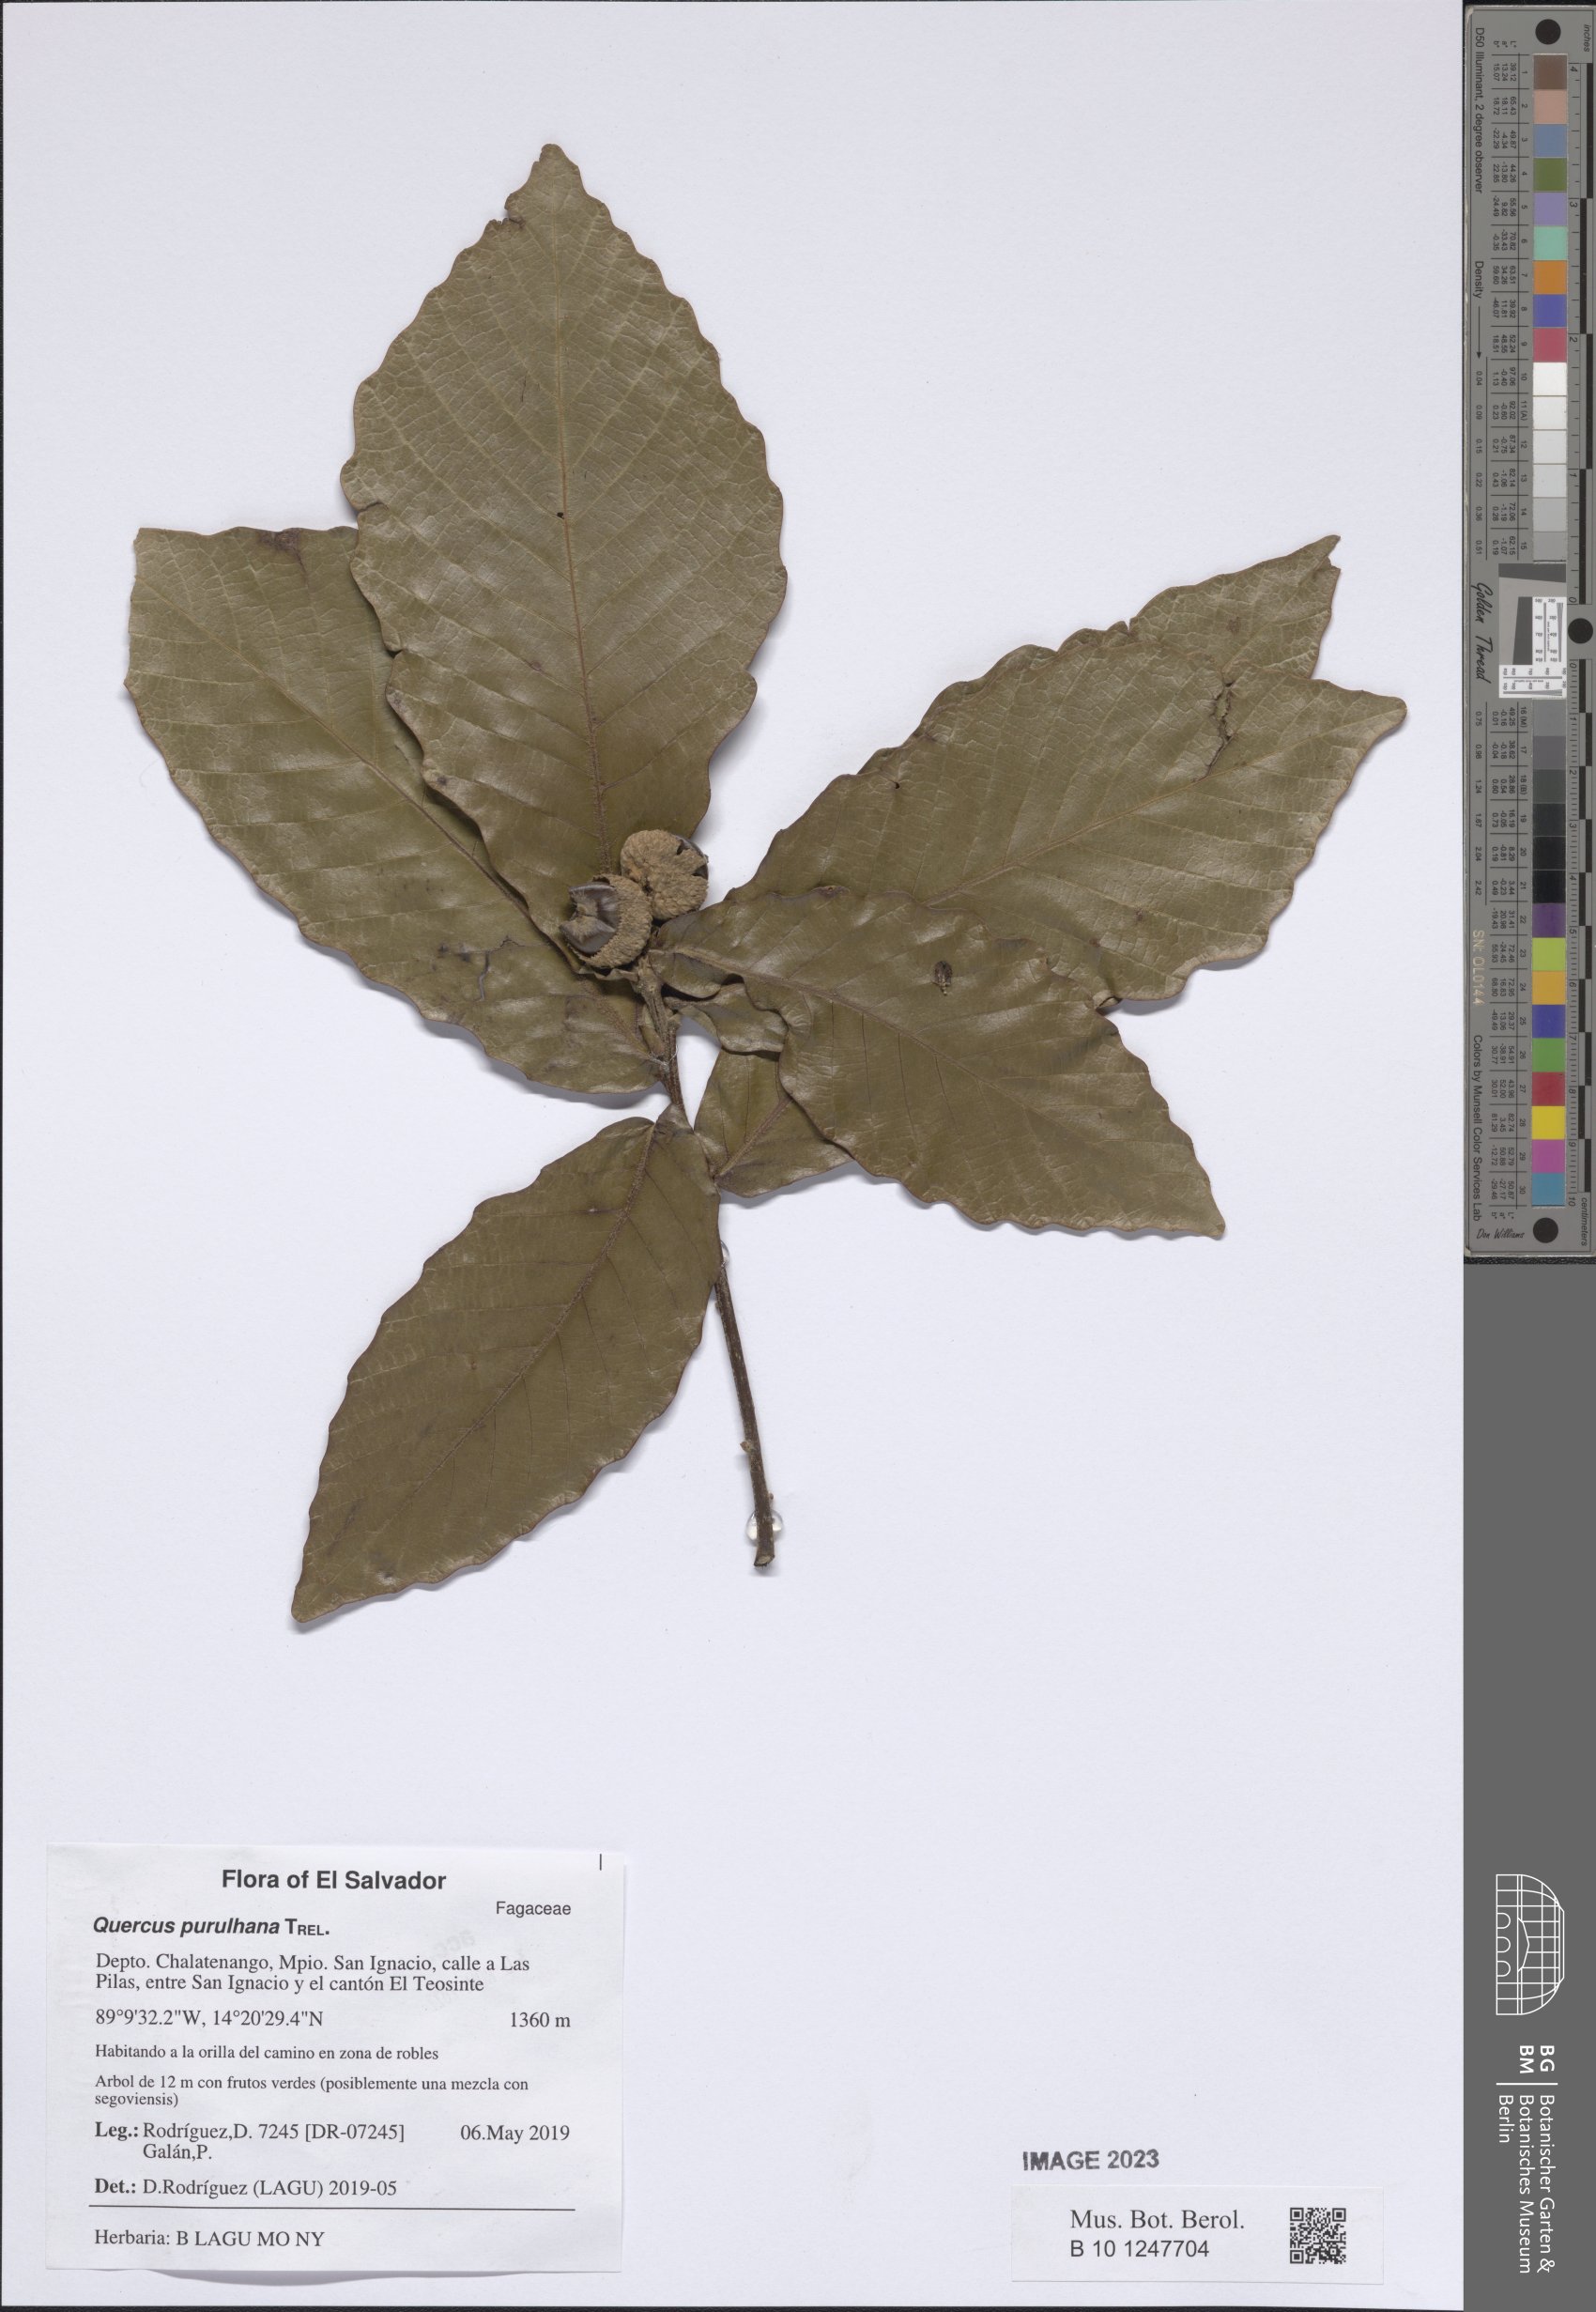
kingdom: Plantae
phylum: Tracheophyta
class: Magnoliopsida
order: Fagales
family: Fagaceae
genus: Quercus
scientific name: Quercus purulhana
